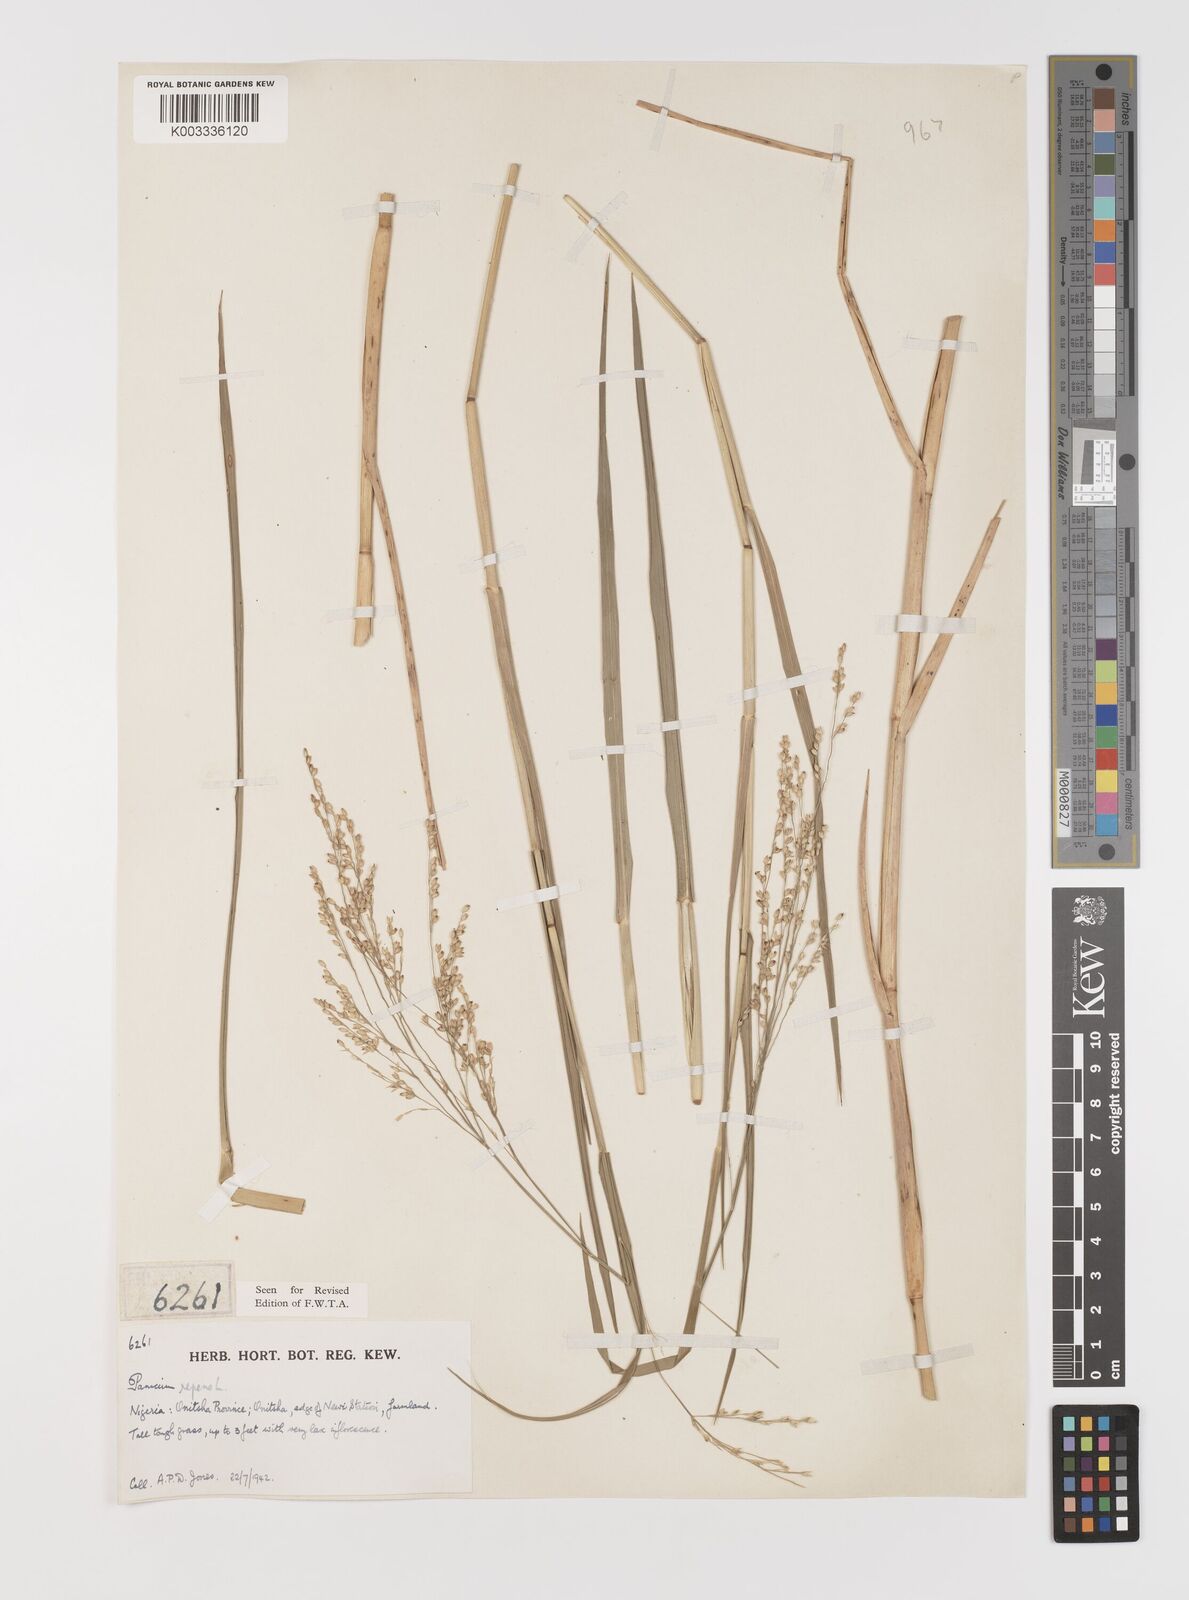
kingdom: Plantae
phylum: Tracheophyta
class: Liliopsida
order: Poales
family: Poaceae
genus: Panicum
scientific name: Panicum repens
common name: Torpedo grass
